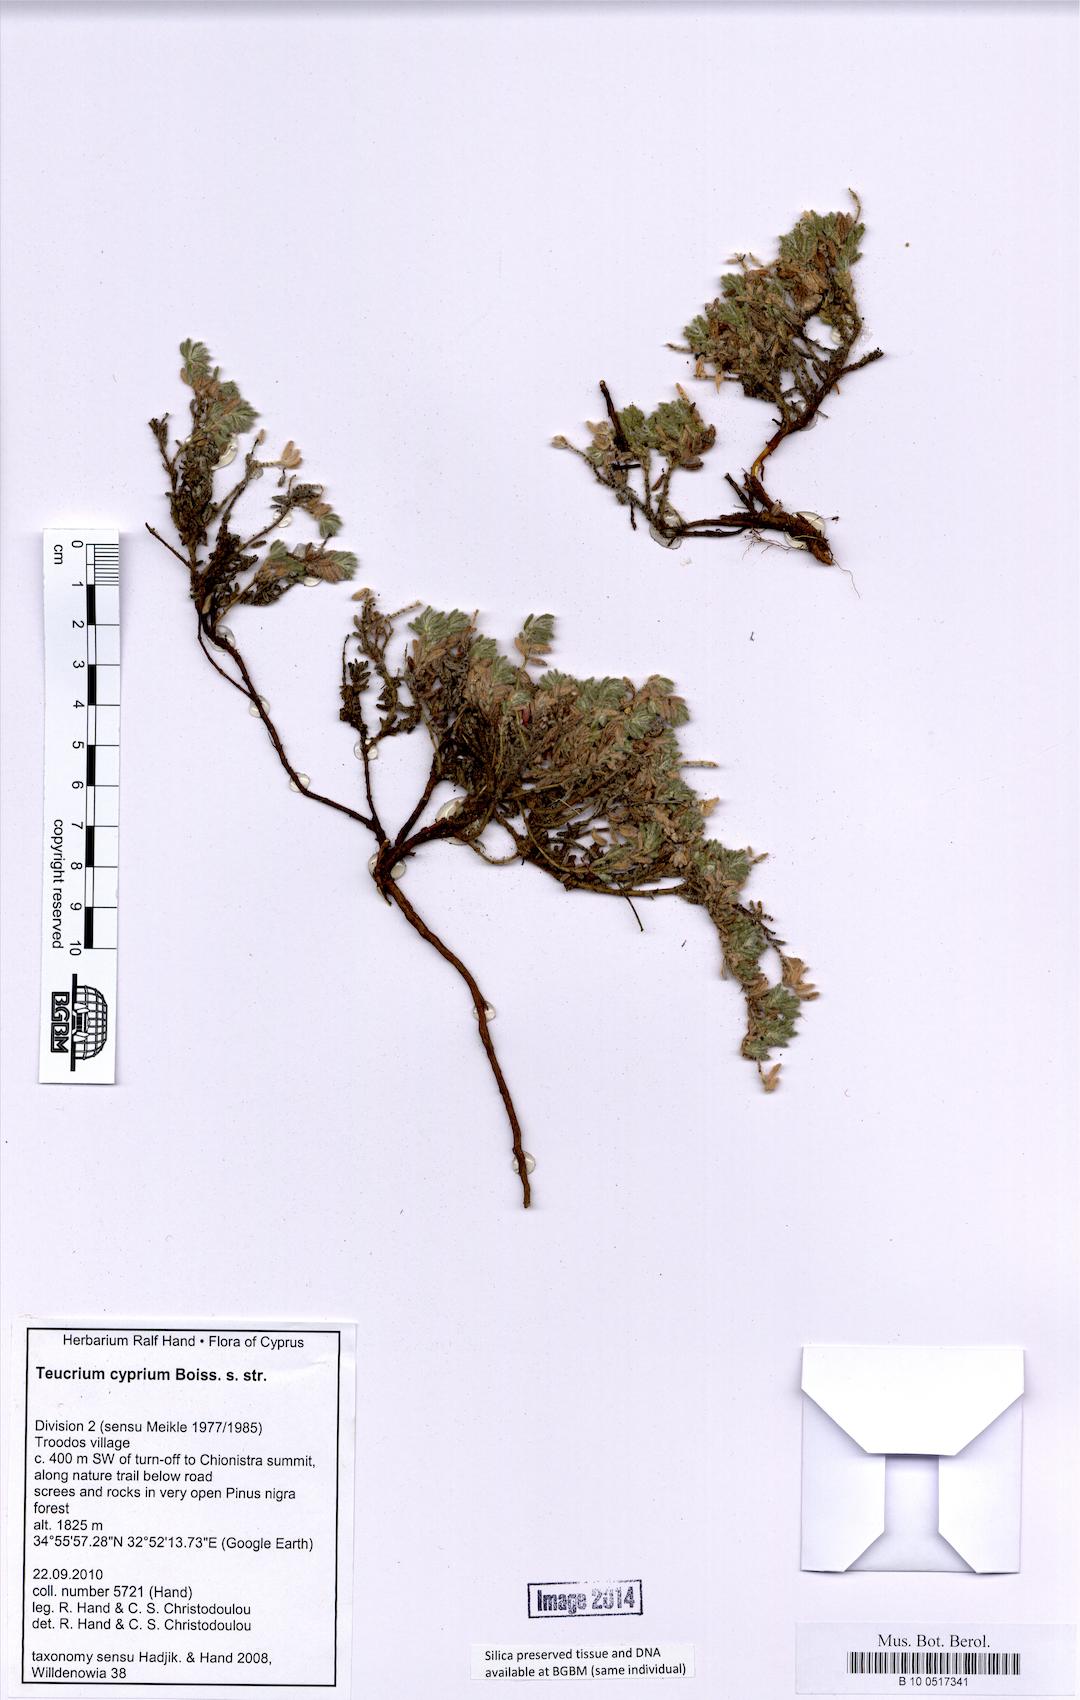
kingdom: Plantae
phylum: Tracheophyta
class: Magnoliopsida
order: Lamiales
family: Lamiaceae
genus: Teucrium
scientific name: Teucrium cyprium
